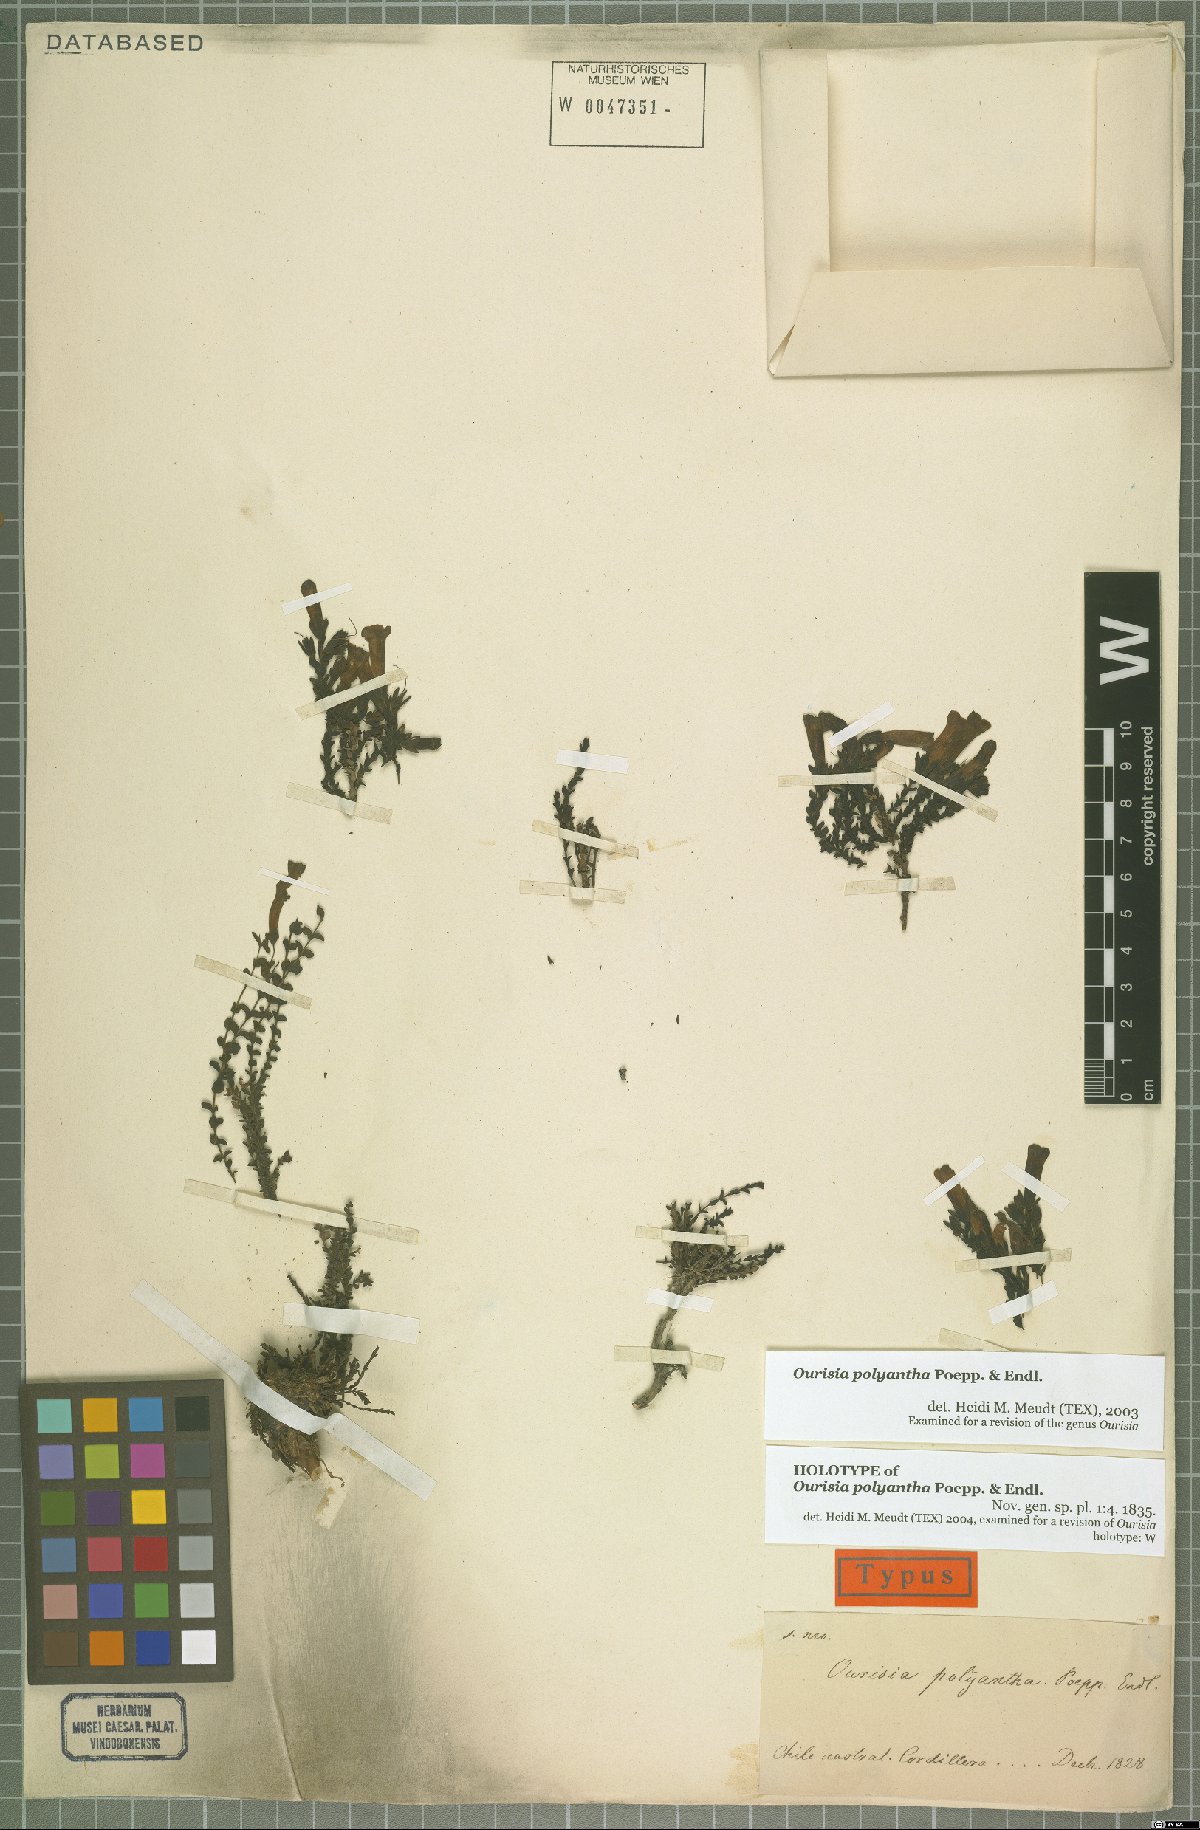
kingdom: Plantae
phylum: Tracheophyta
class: Magnoliopsida
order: Lamiales
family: Plantaginaceae
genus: Ourisia
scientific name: Ourisia polyantha
